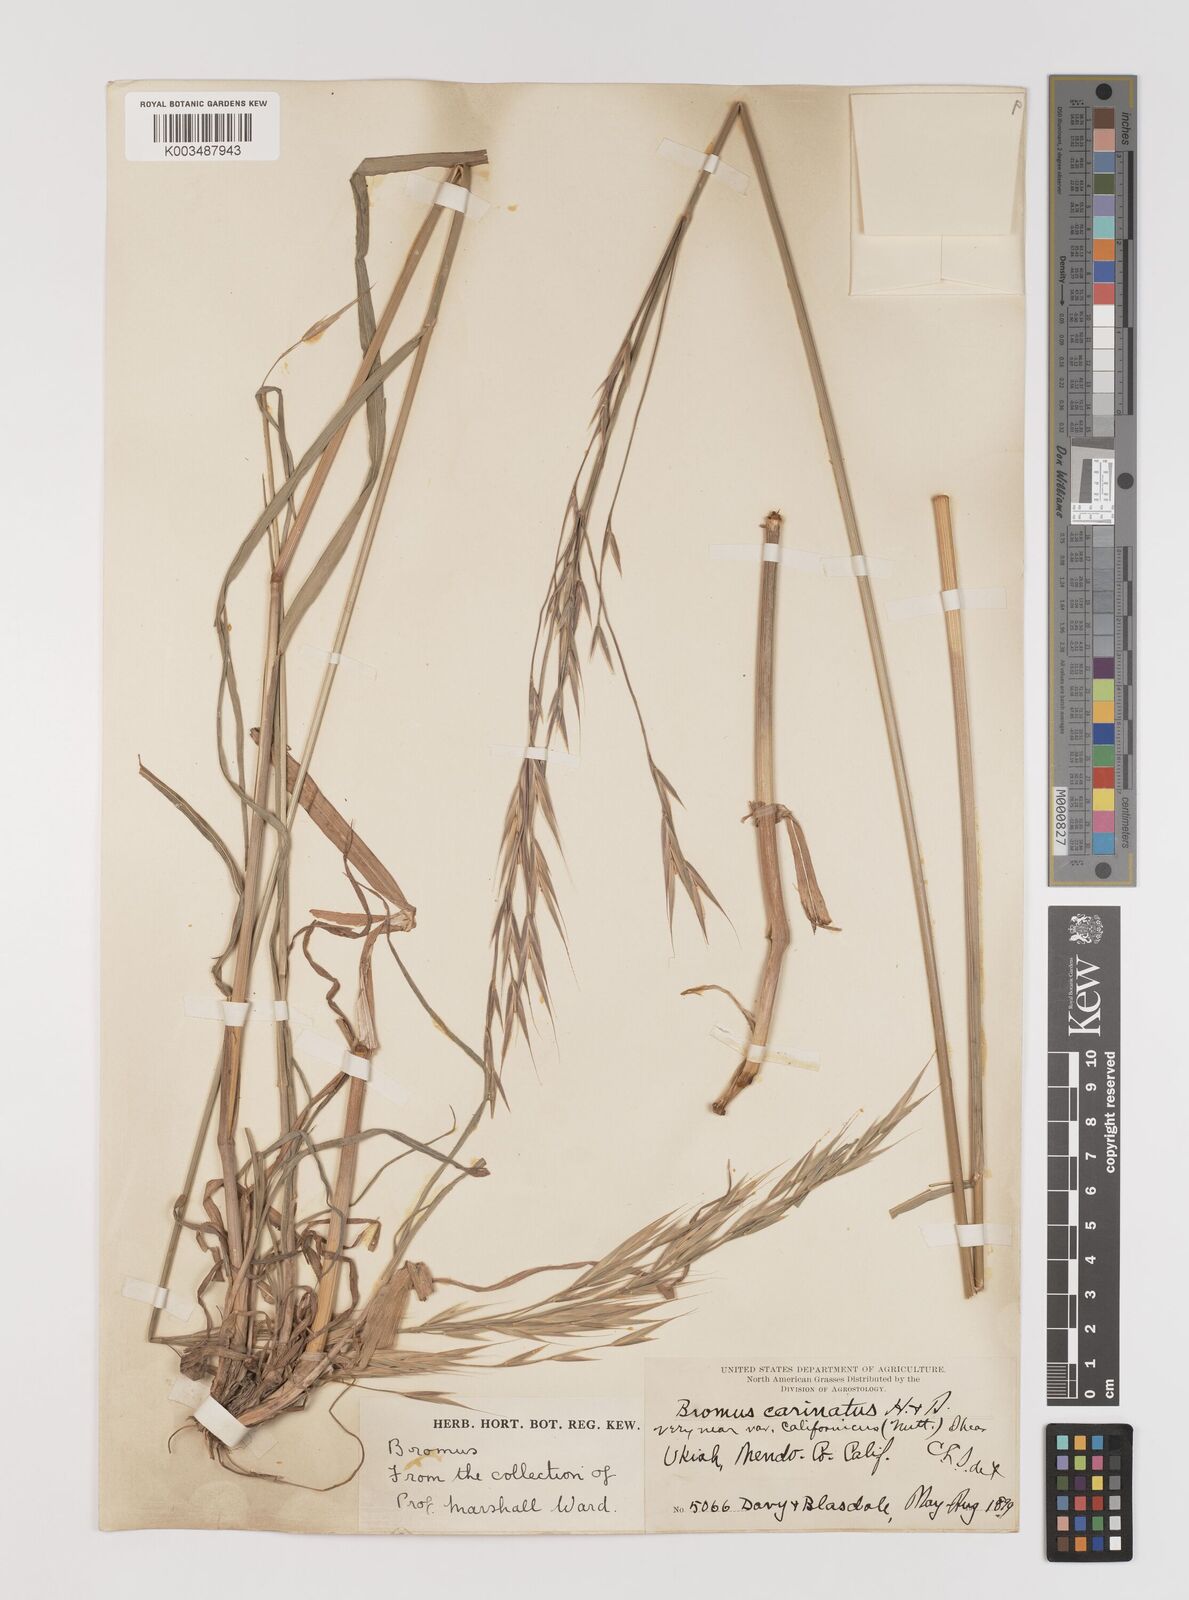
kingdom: Plantae
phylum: Tracheophyta
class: Liliopsida
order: Poales
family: Poaceae
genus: Bromus
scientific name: Bromus carinatus
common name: Mountain brome
